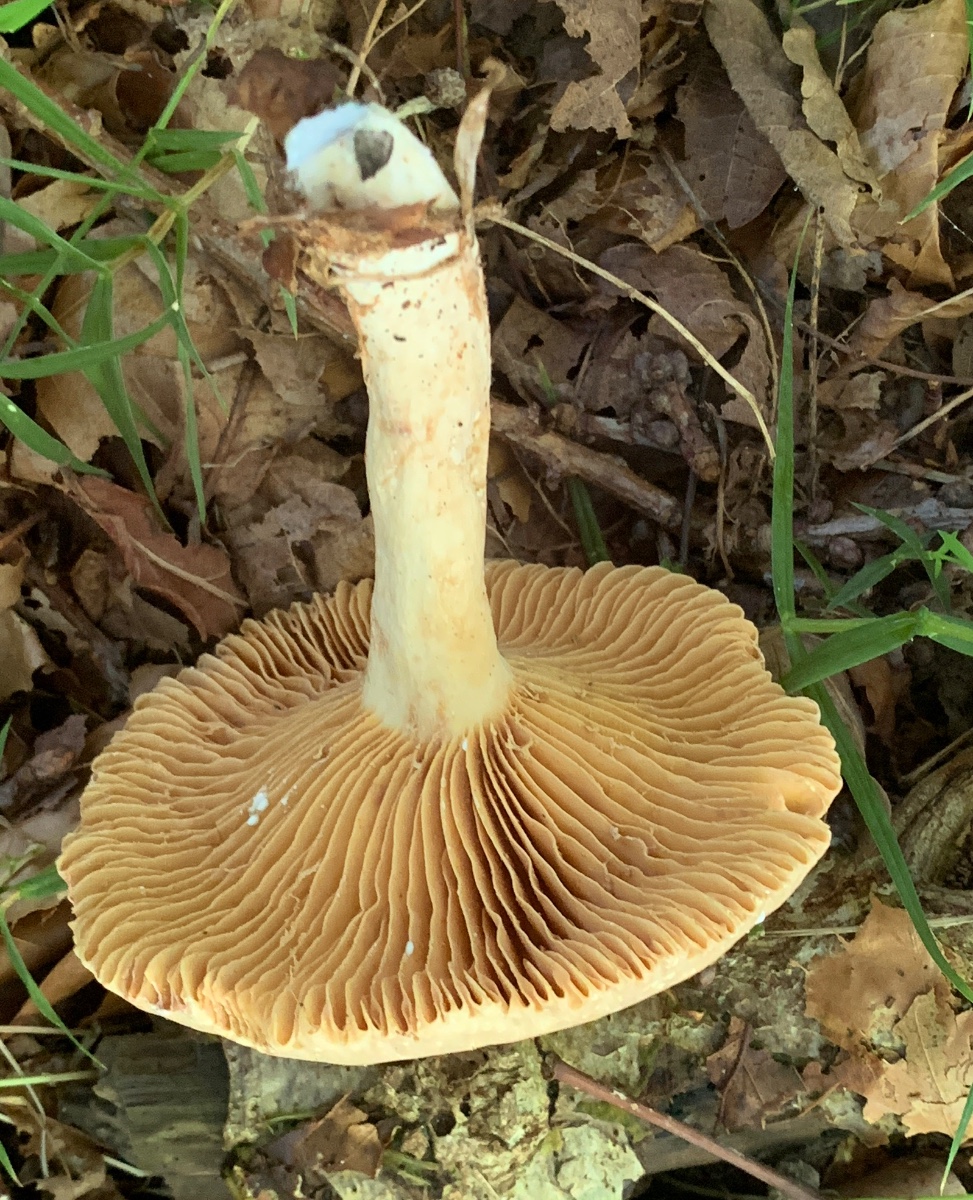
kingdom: Fungi
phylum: Basidiomycota
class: Agaricomycetes
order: Russulales
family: Russulaceae
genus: Lactarius
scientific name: Lactarius ruginosus
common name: gråbrun mælkehat
